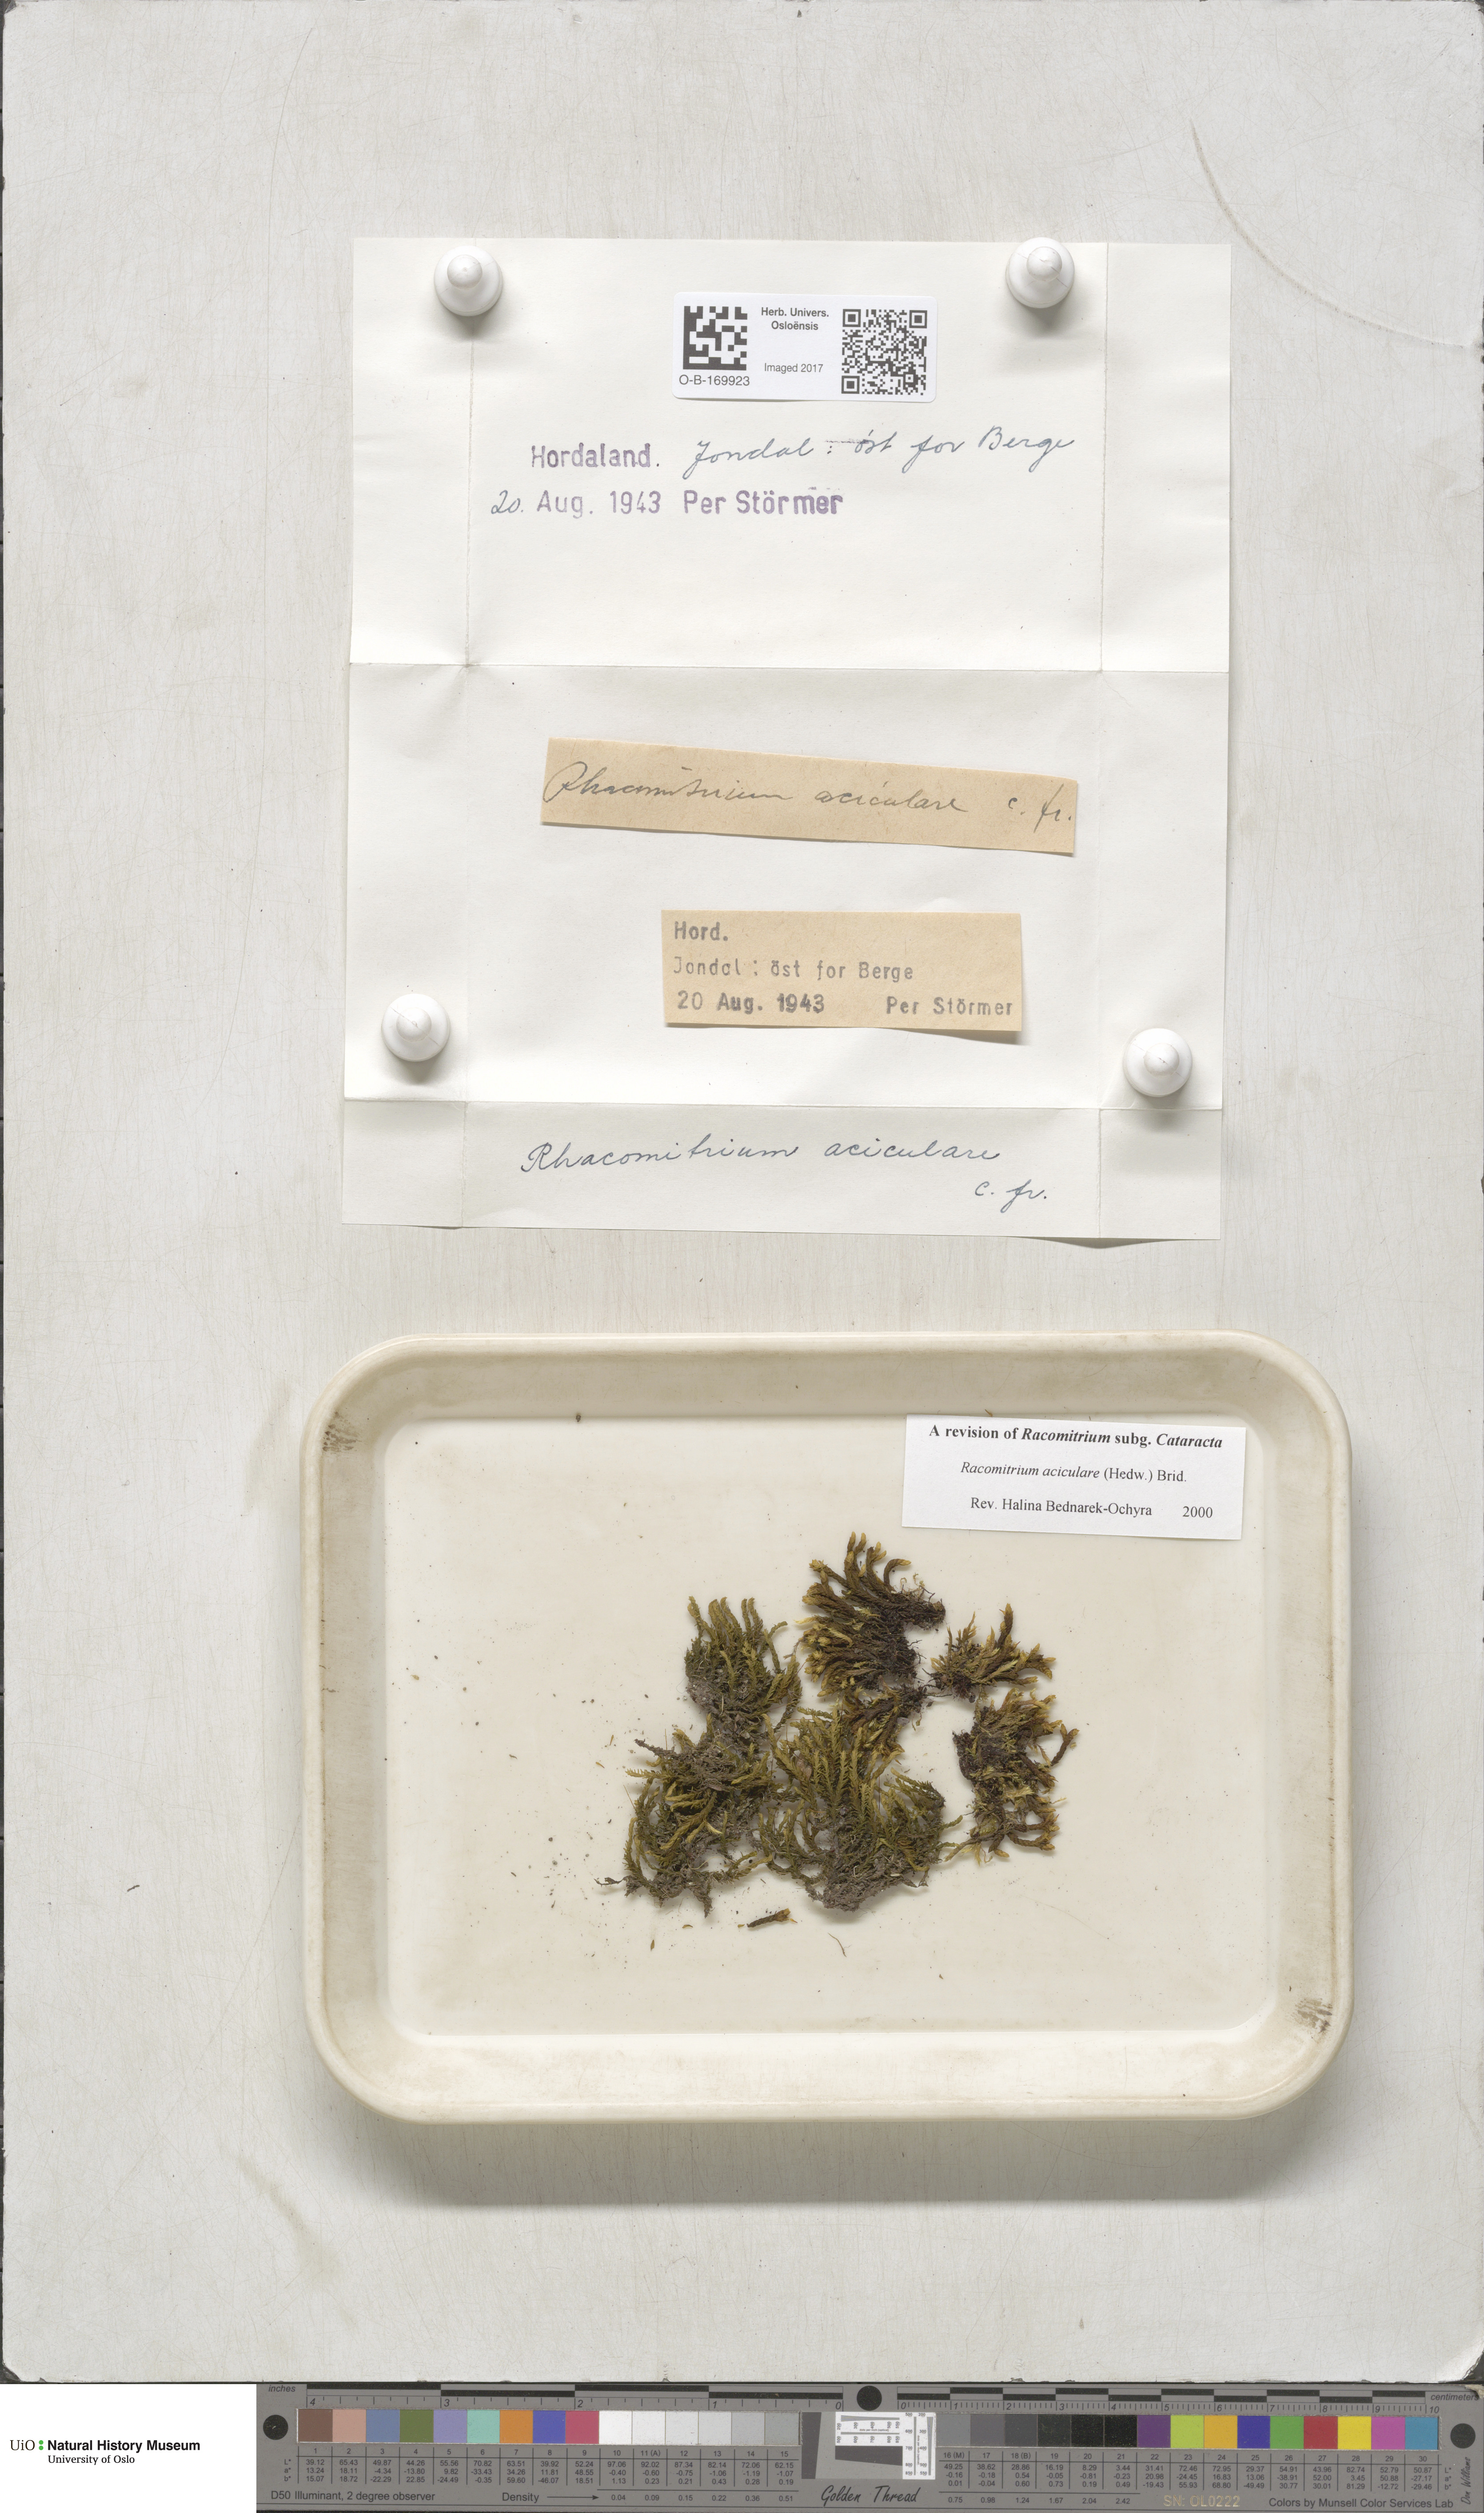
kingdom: Plantae
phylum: Bryophyta
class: Bryopsida
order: Grimmiales
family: Grimmiaceae
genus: Codriophorus
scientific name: Codriophorus acicularis
